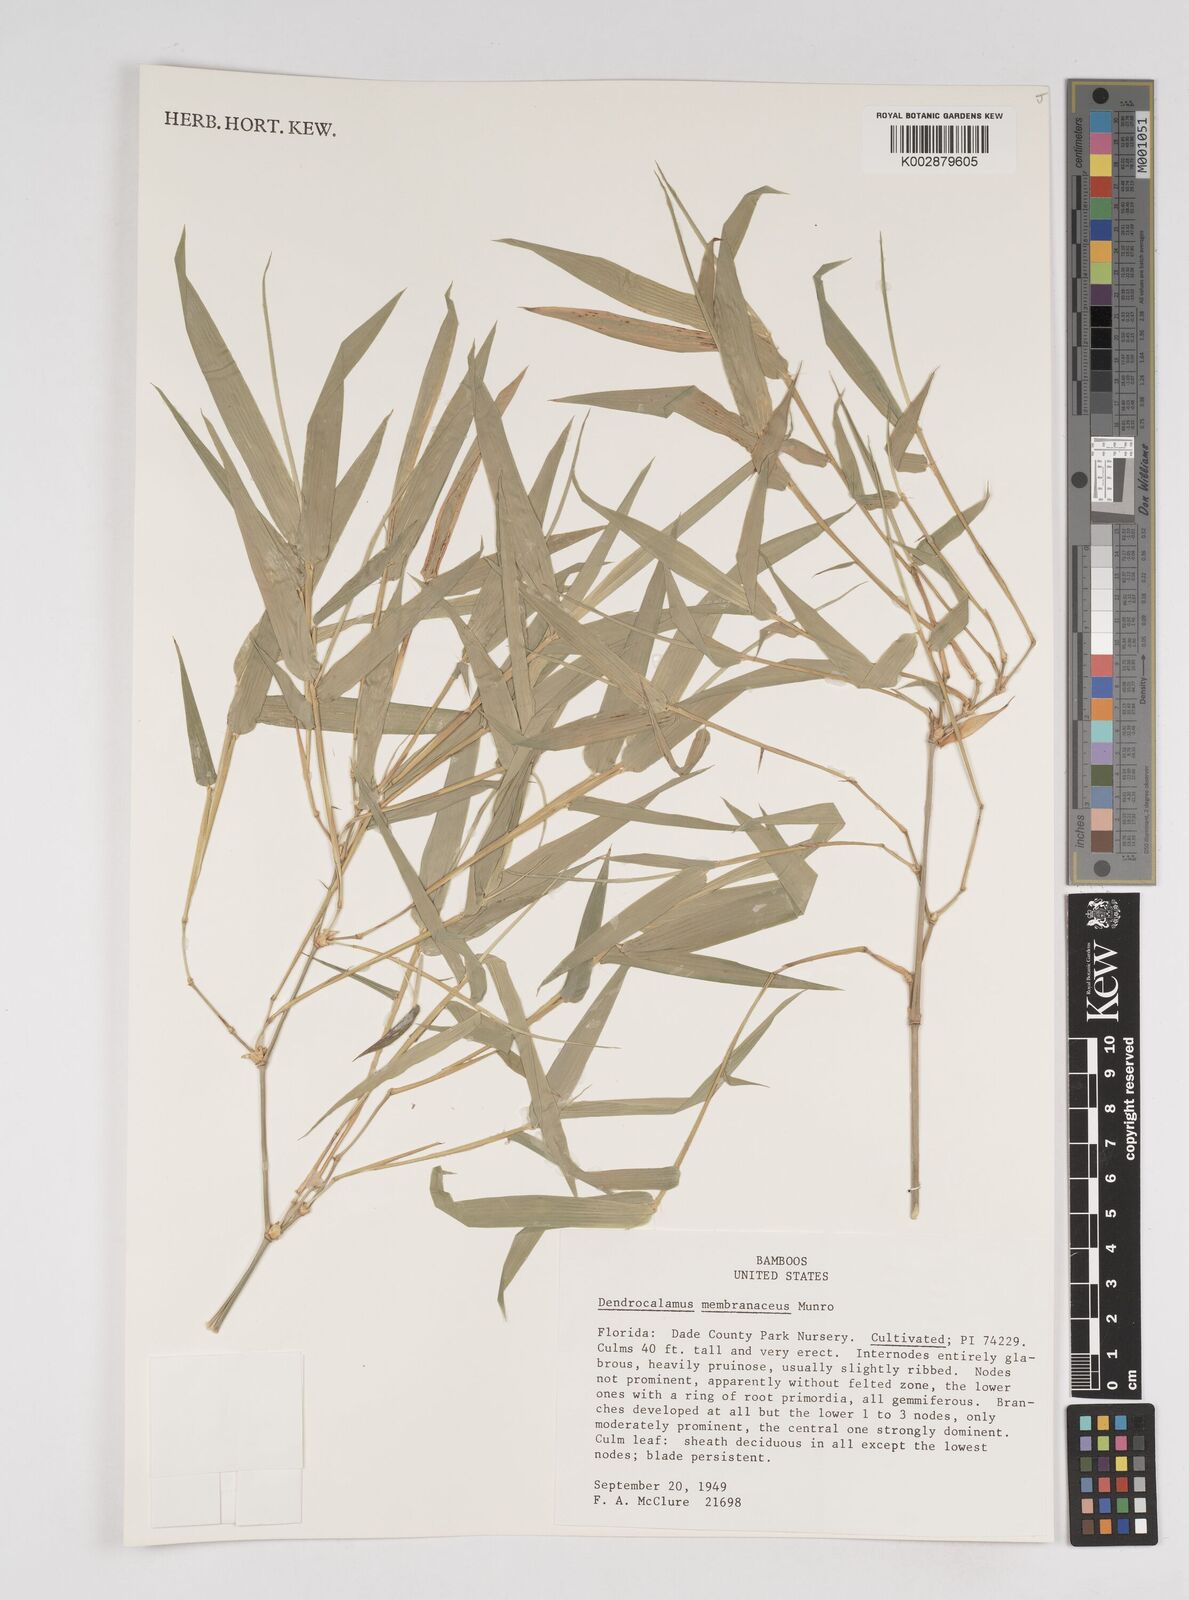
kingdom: Plantae
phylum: Tracheophyta
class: Liliopsida
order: Poales
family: Poaceae
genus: Dendrocalamus
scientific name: Dendrocalamus membranaceus
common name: White bamboo
